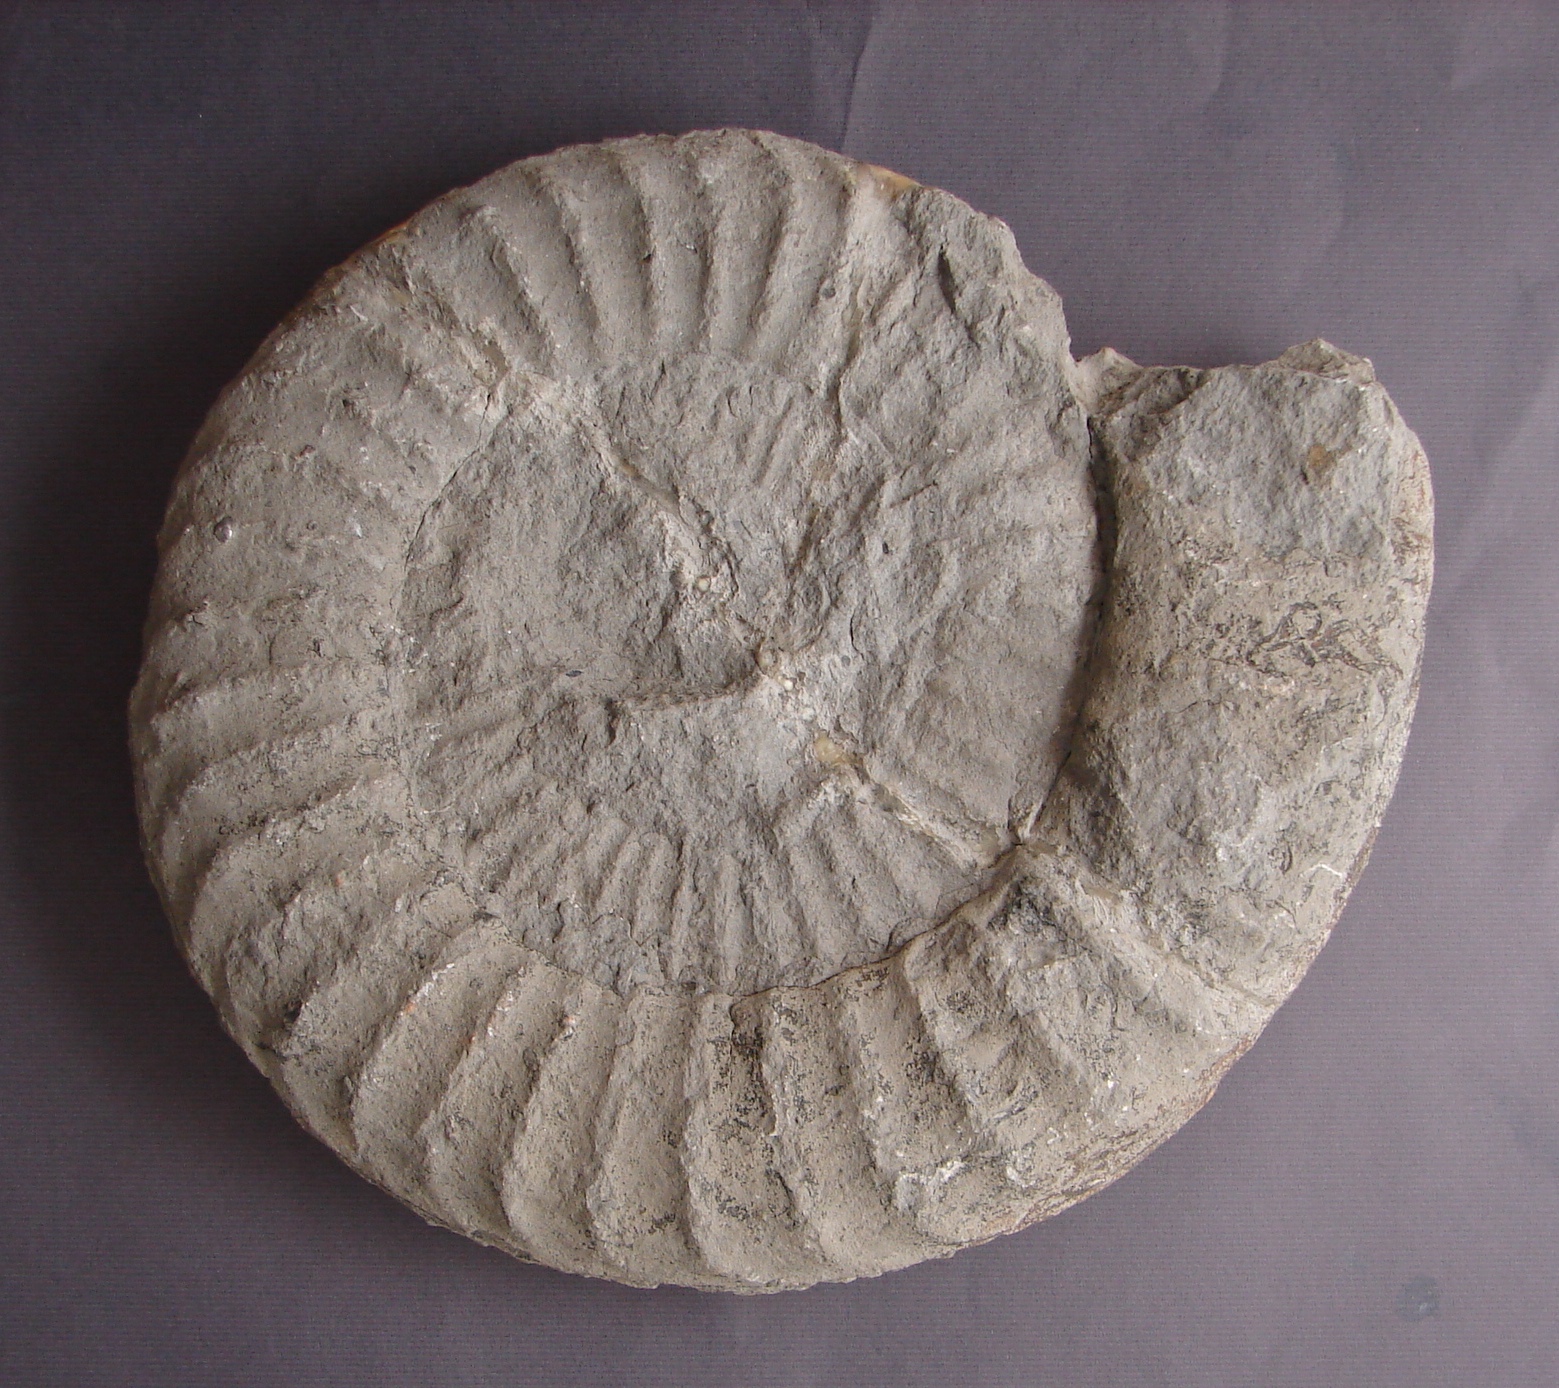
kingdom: Animalia
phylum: Mollusca
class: Cephalopoda
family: Arietitidae
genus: Arietites
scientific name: Arietites
